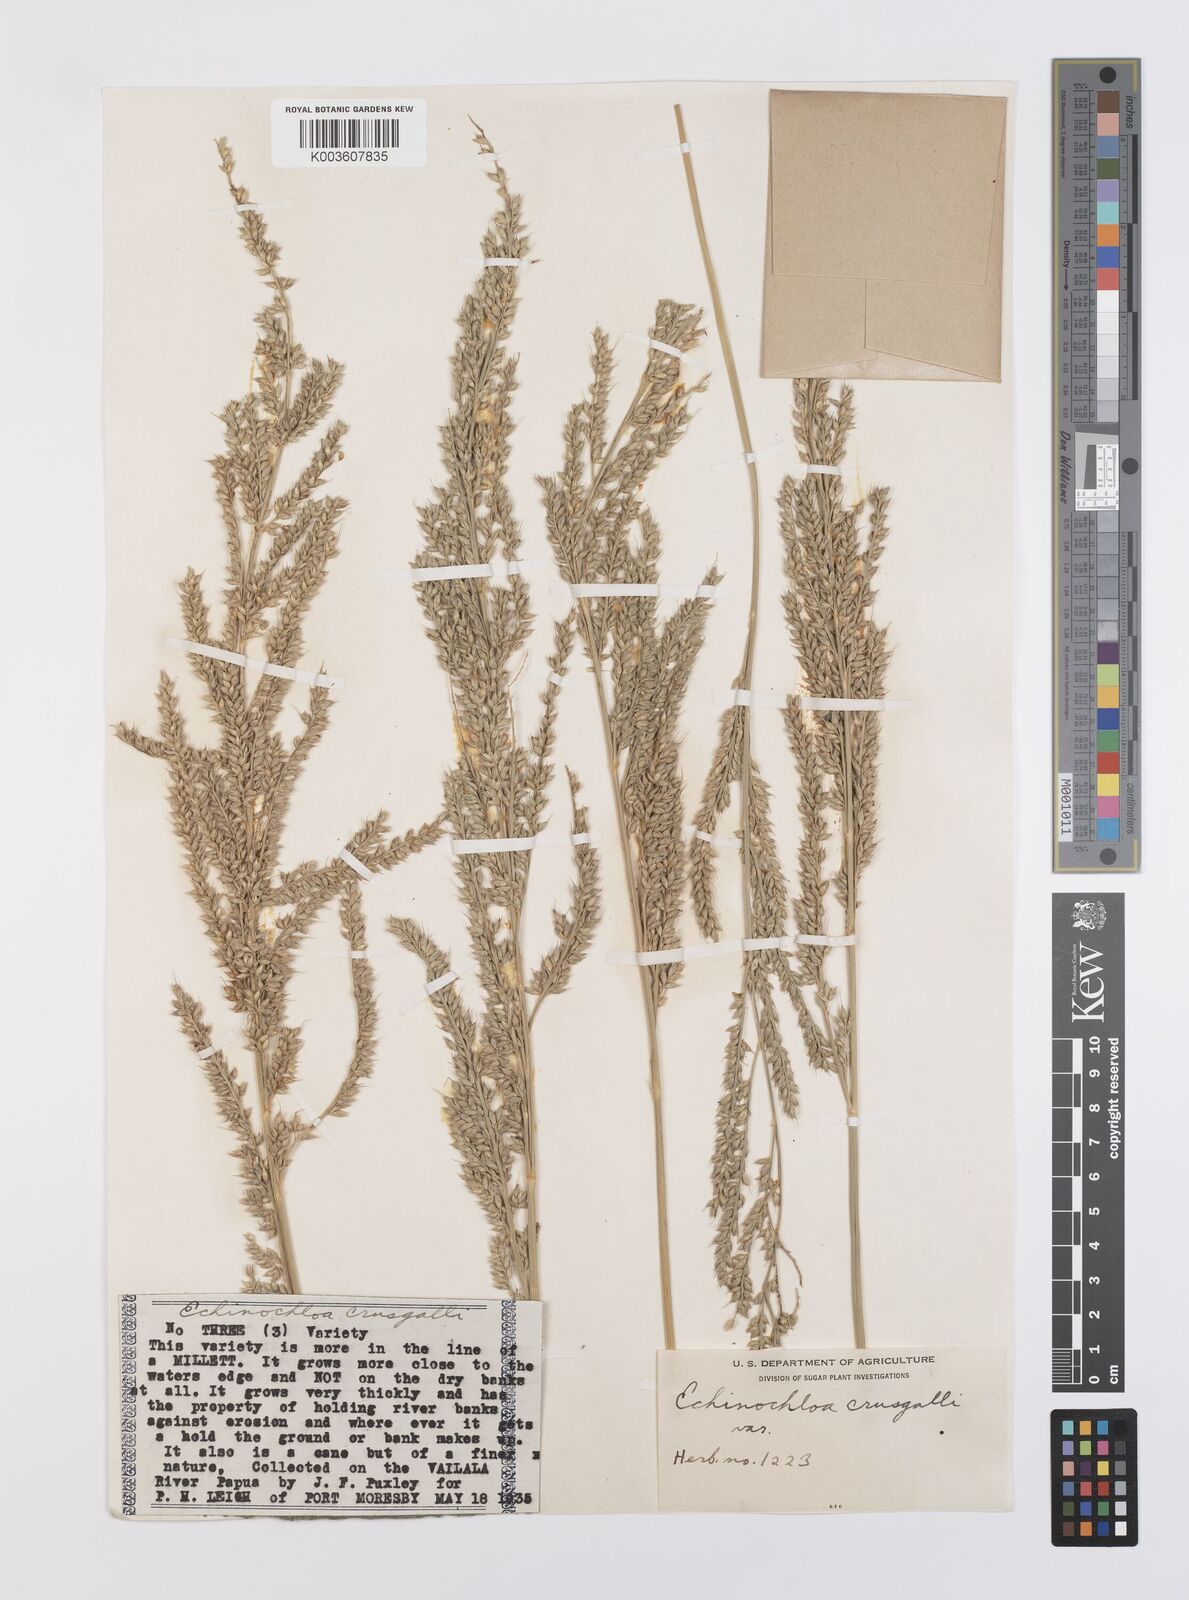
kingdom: Plantae
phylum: Tracheophyta
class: Liliopsida
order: Poales
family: Poaceae
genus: Echinochloa
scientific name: Echinochloa praestans
